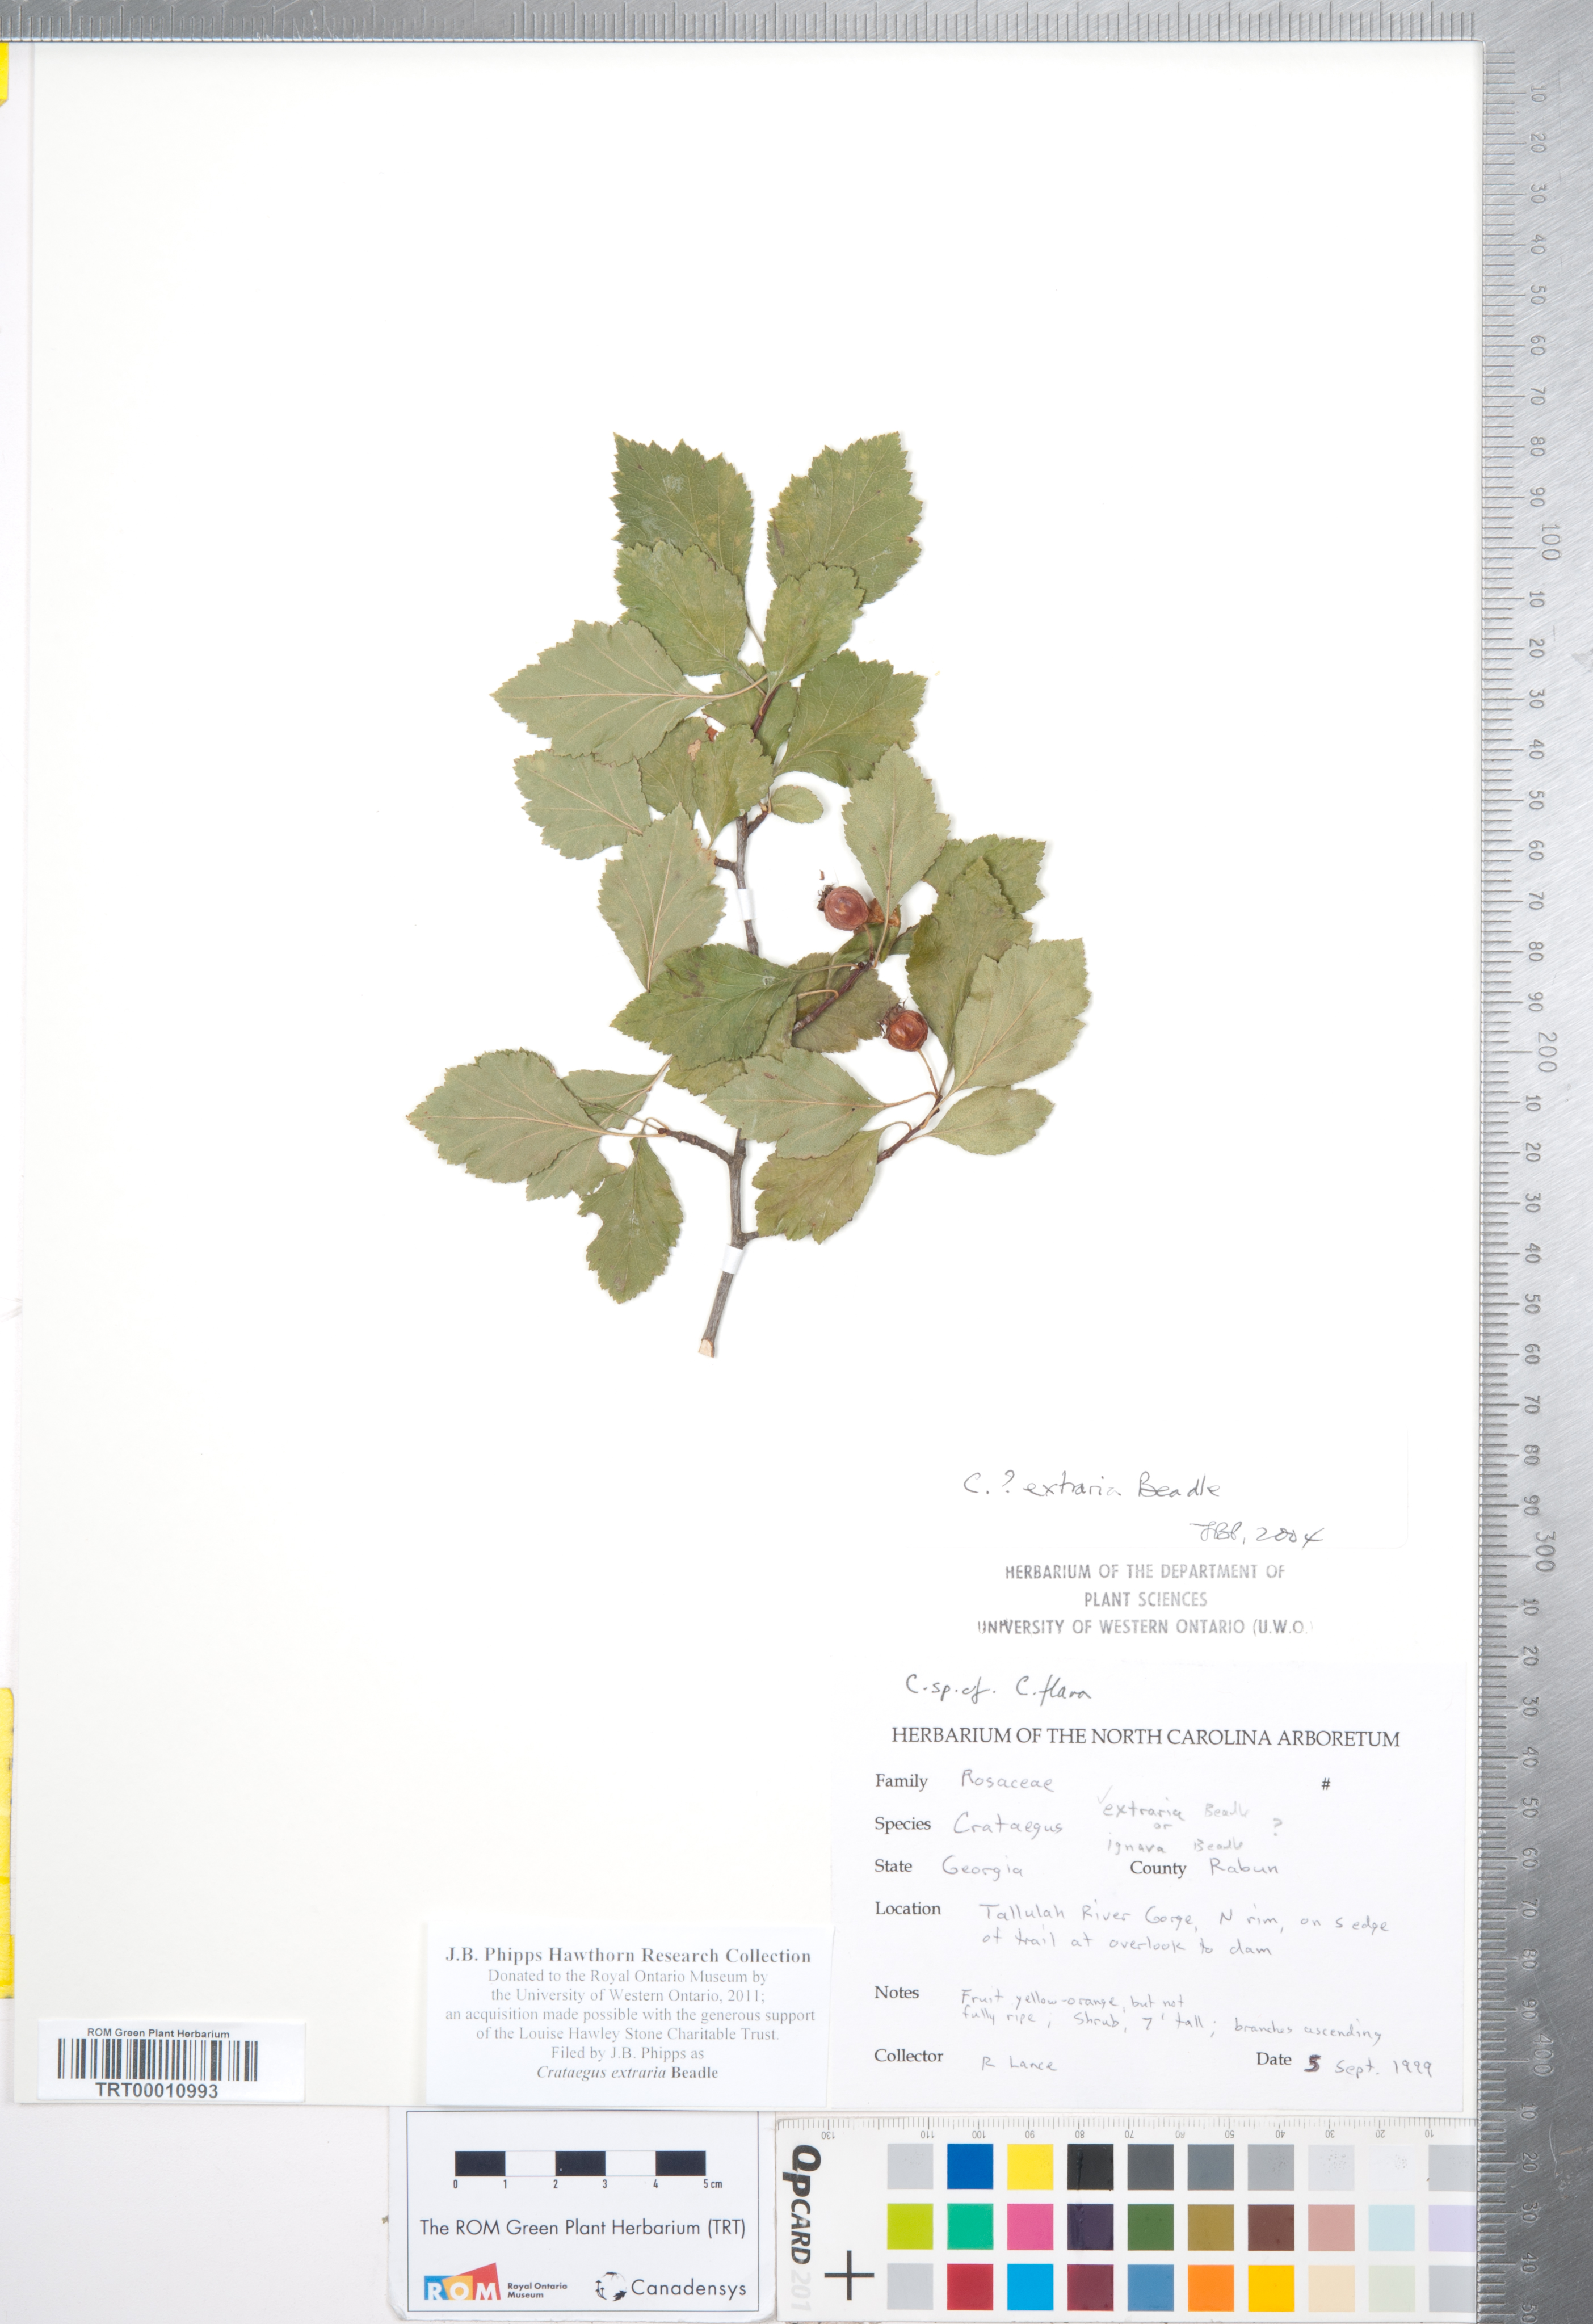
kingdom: Plantae
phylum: Tracheophyta
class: Magnoliopsida
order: Rosales
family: Rosaceae
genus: Crataegus
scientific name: Crataegus alleghaniensis
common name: Allegheny hawthorn
